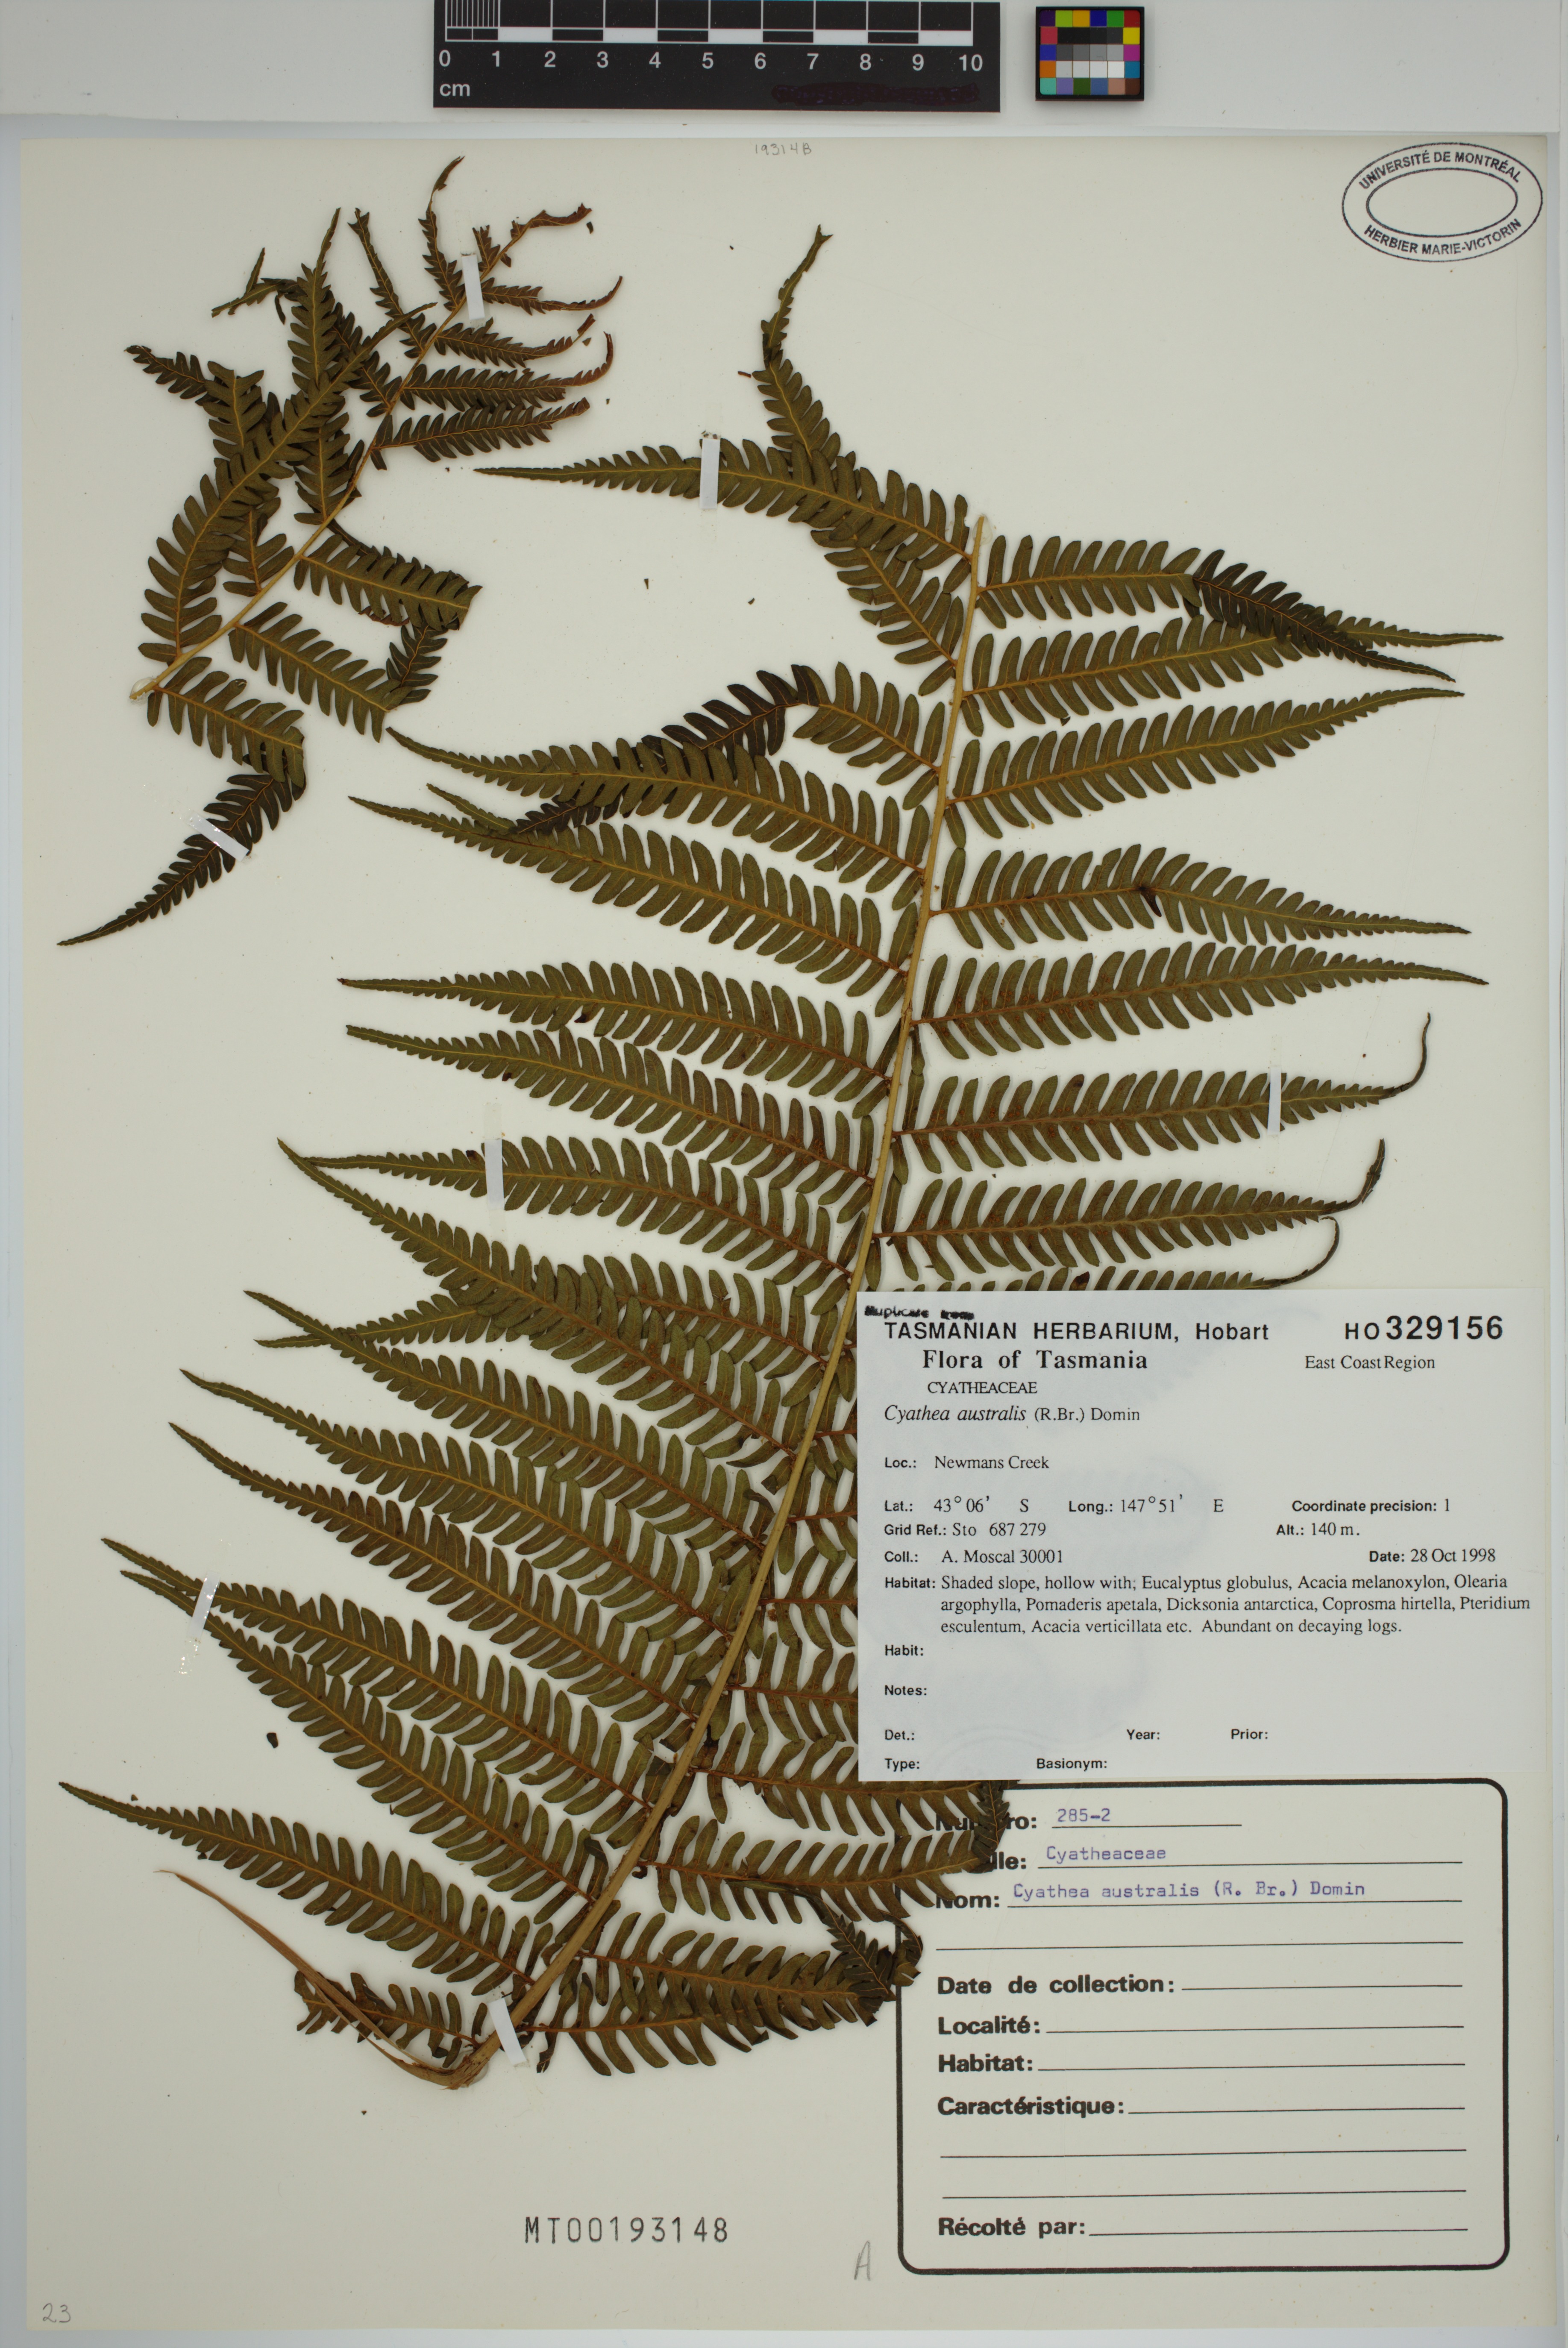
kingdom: Plantae
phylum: Tracheophyta
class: Polypodiopsida
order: Cyatheales
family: Cyatheaceae
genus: Alsophila
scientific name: Alsophila australis
